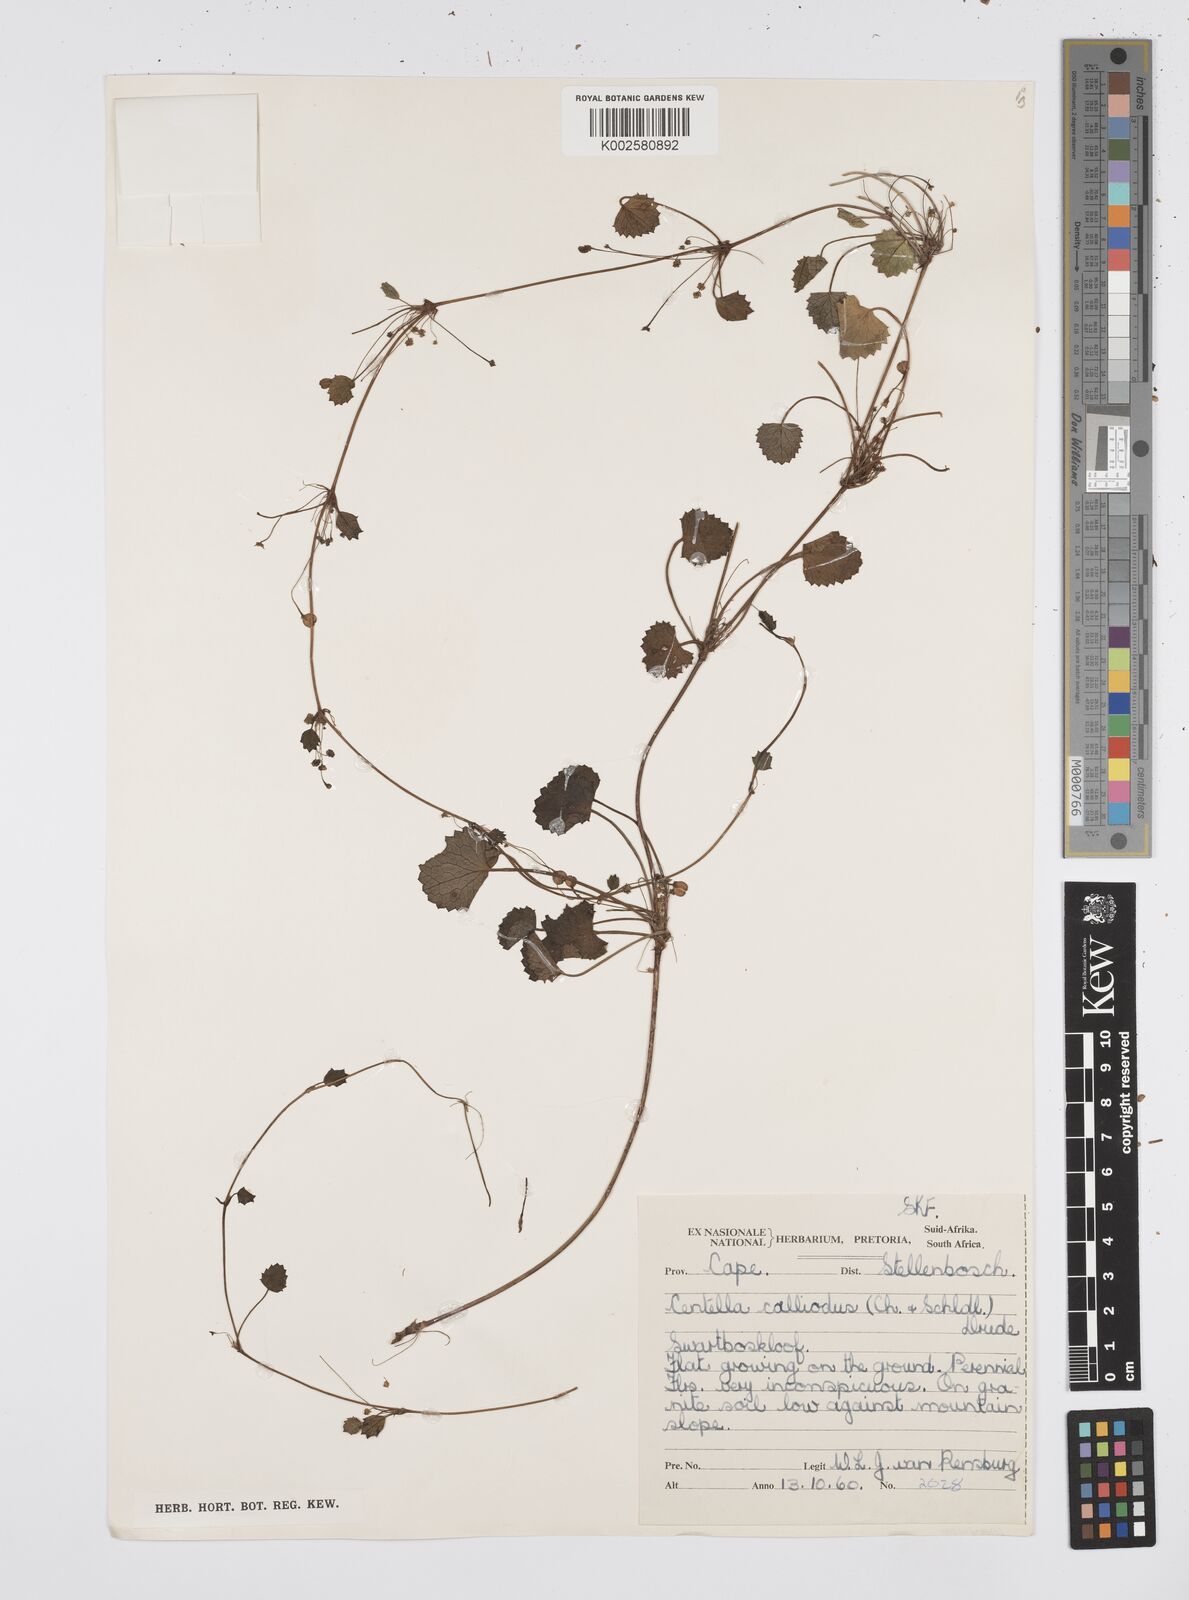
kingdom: Plantae
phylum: Tracheophyta
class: Magnoliopsida
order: Apiales
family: Apiaceae
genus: Centella
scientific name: Centella
